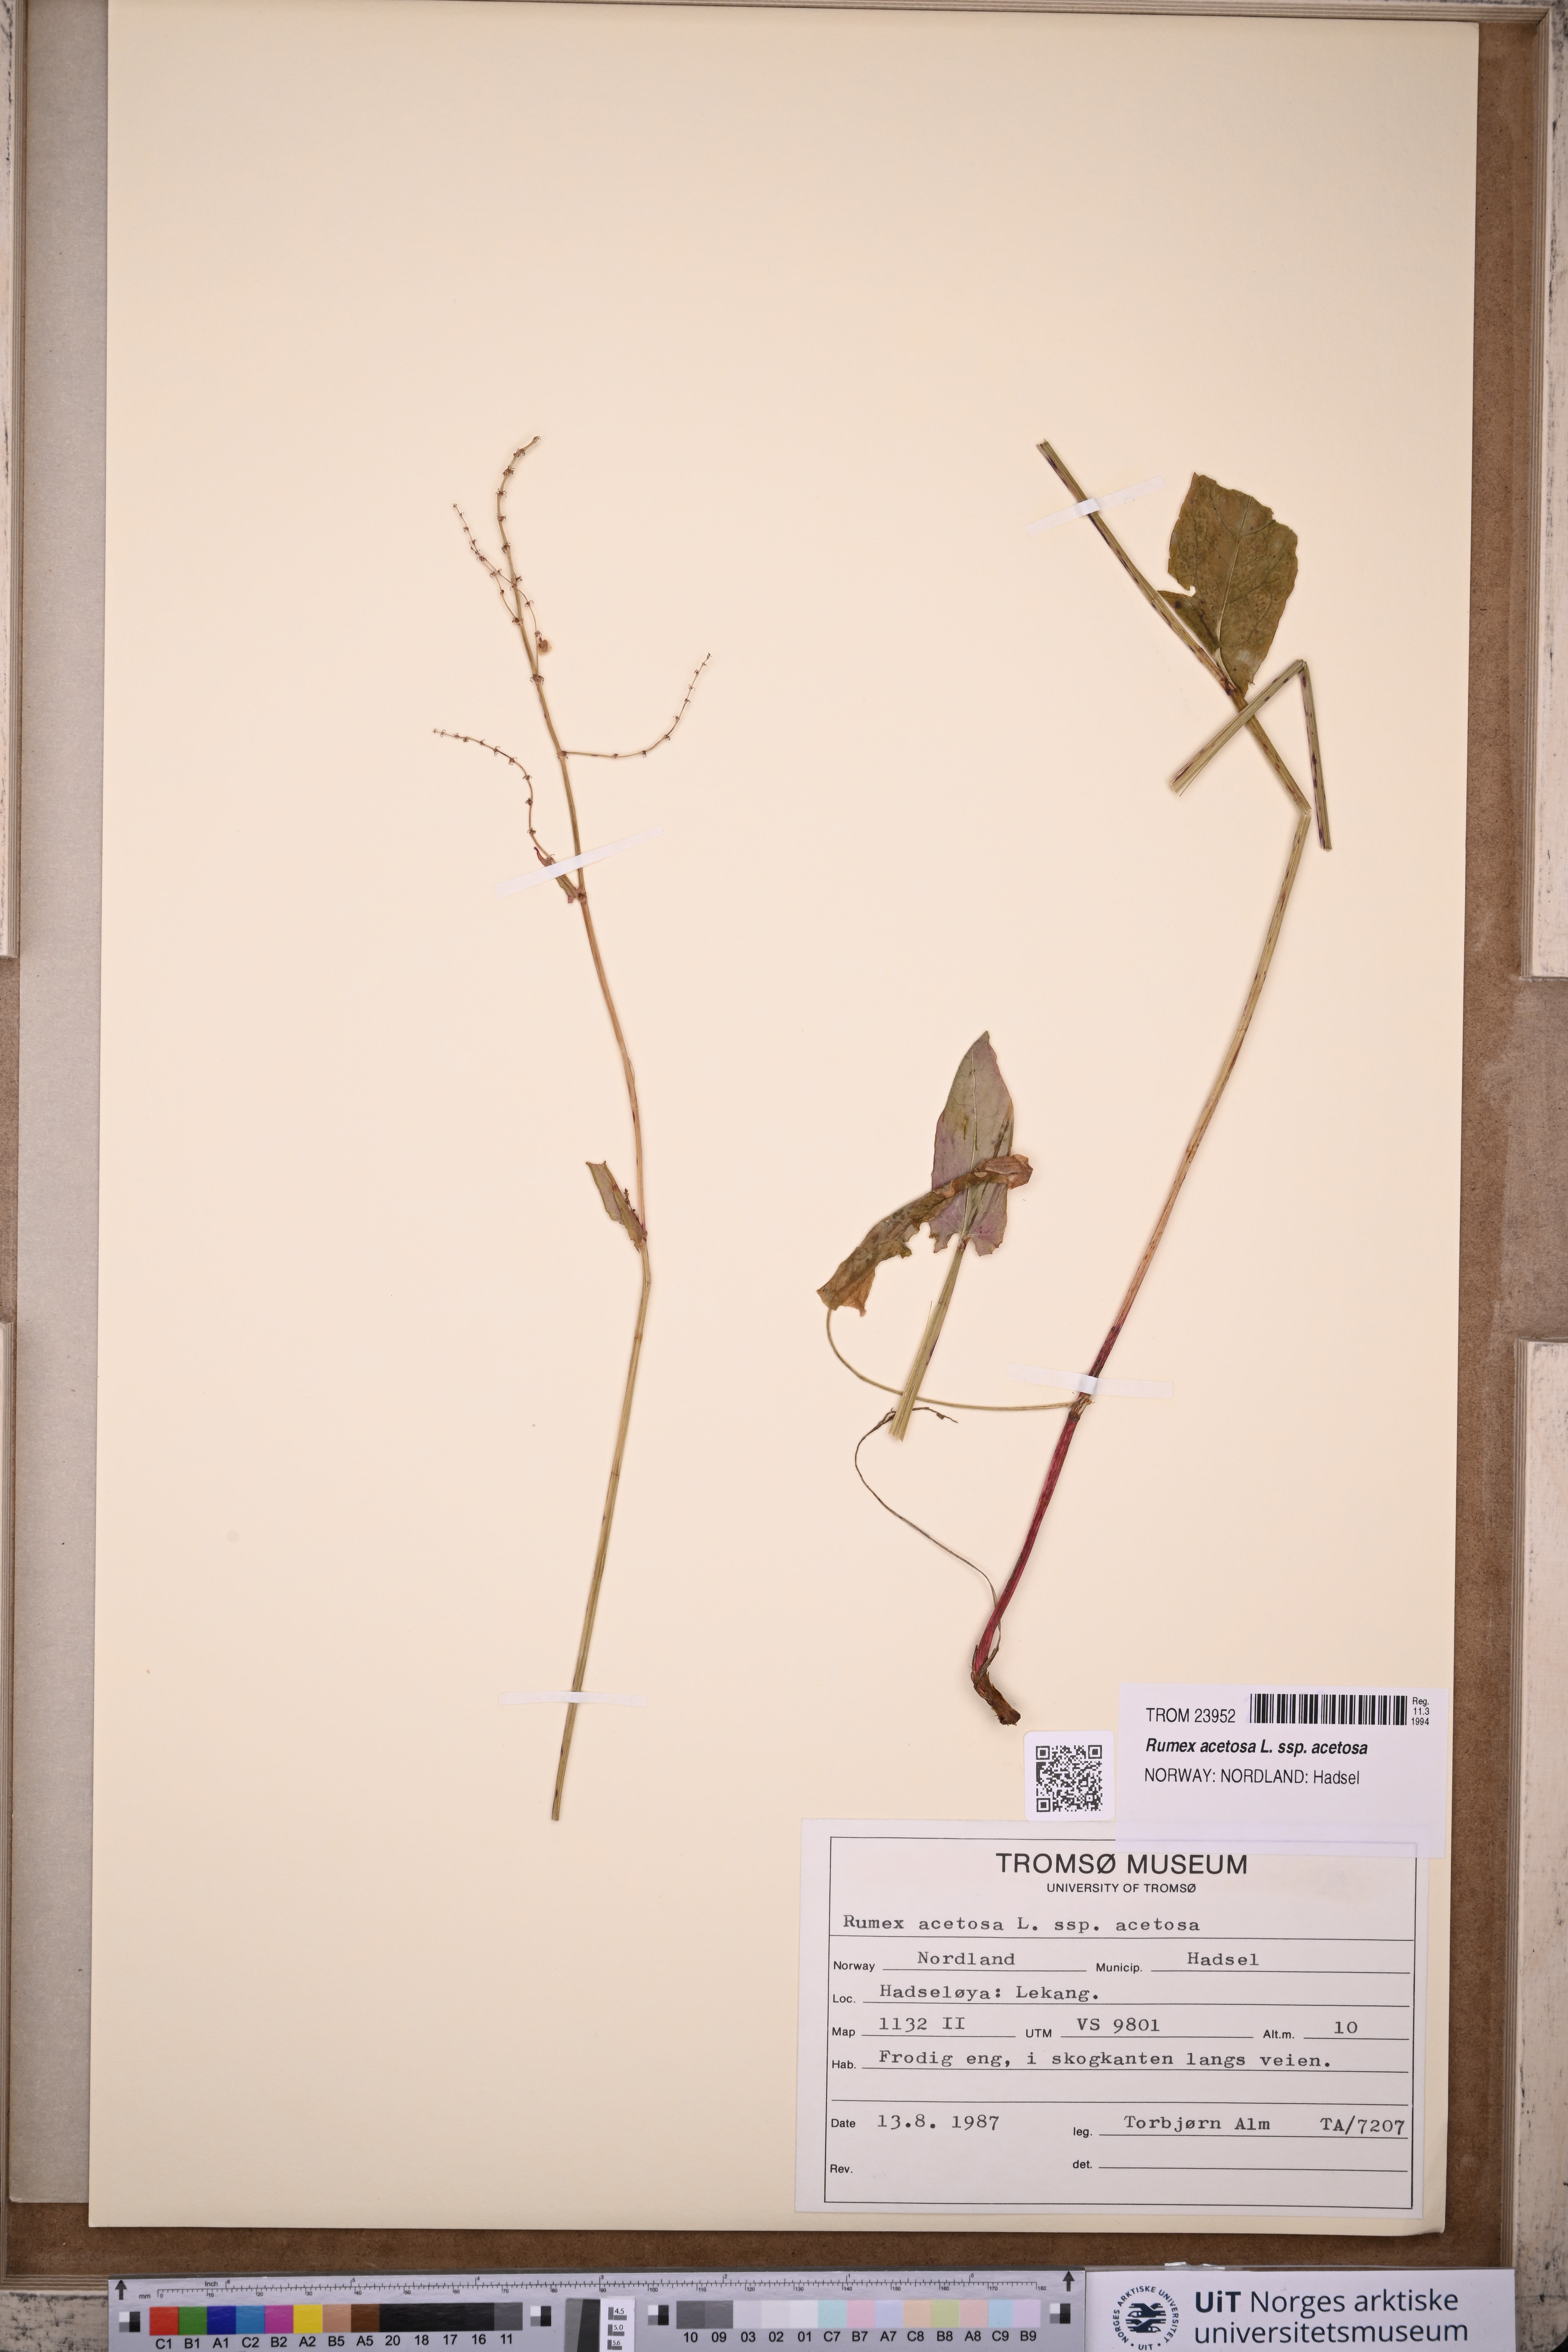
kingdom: Plantae
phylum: Tracheophyta
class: Magnoliopsida
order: Caryophyllales
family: Polygonaceae
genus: Rumex
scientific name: Rumex acetosa
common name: Garden sorrel
